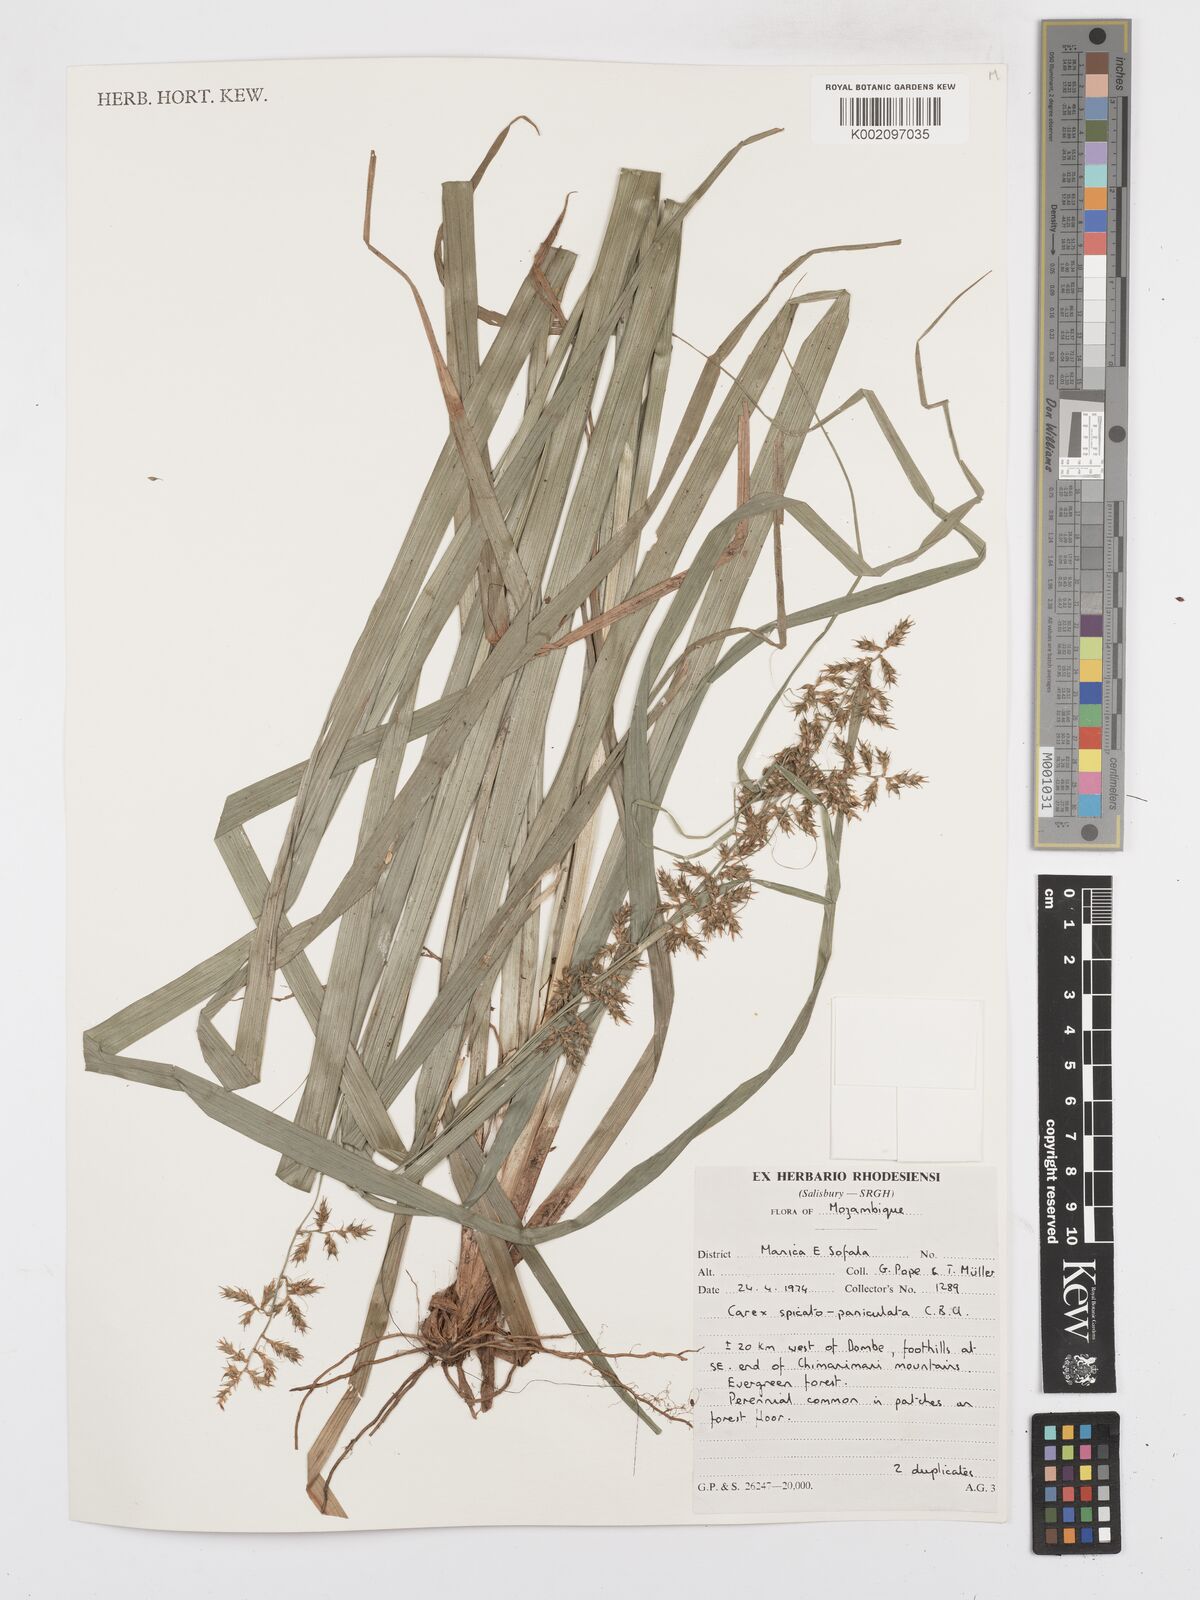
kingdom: Plantae
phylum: Tracheophyta
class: Liliopsida
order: Poales
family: Cyperaceae
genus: Carex
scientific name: Carex spicatopaniculata
